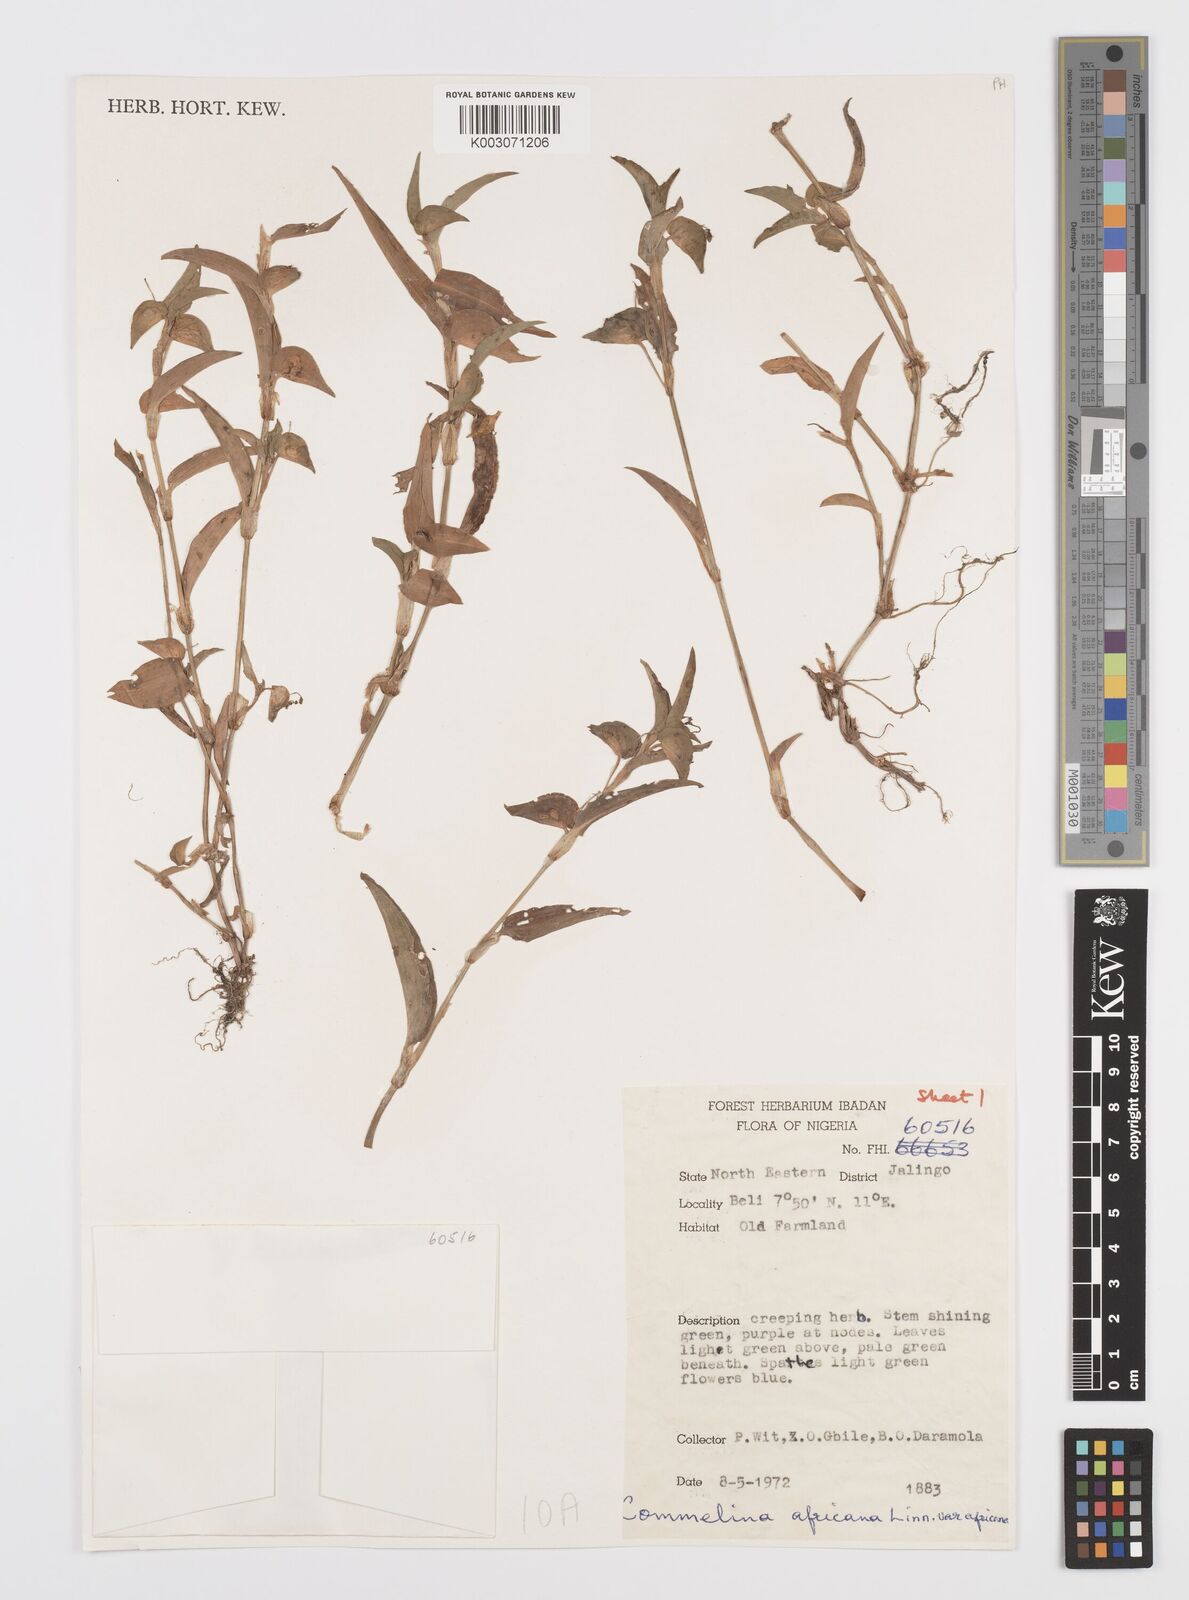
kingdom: Plantae
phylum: Tracheophyta
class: Liliopsida
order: Commelinales
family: Commelinaceae
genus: Commelina
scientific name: Commelina diffusa
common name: Climbing dayflower
